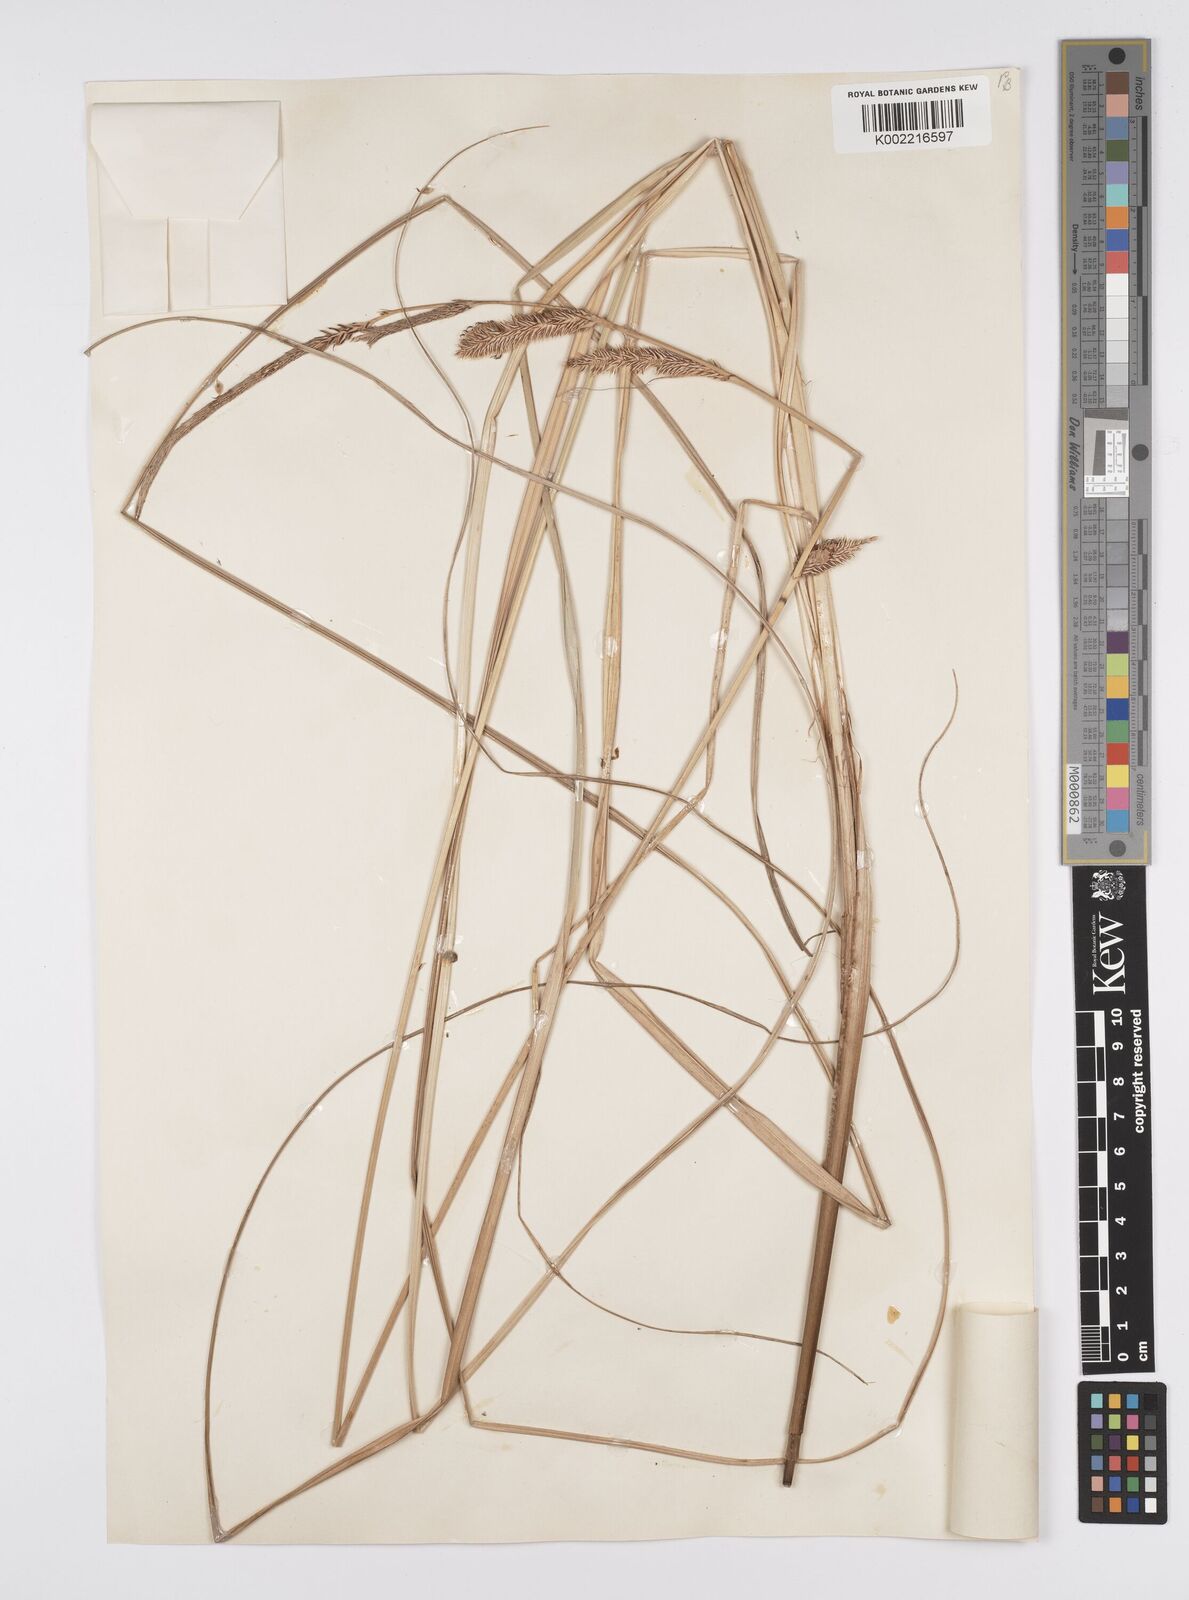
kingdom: Plantae
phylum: Tracheophyta
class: Liliopsida
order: Poales
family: Cyperaceae
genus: Carex
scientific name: Carex hispida
